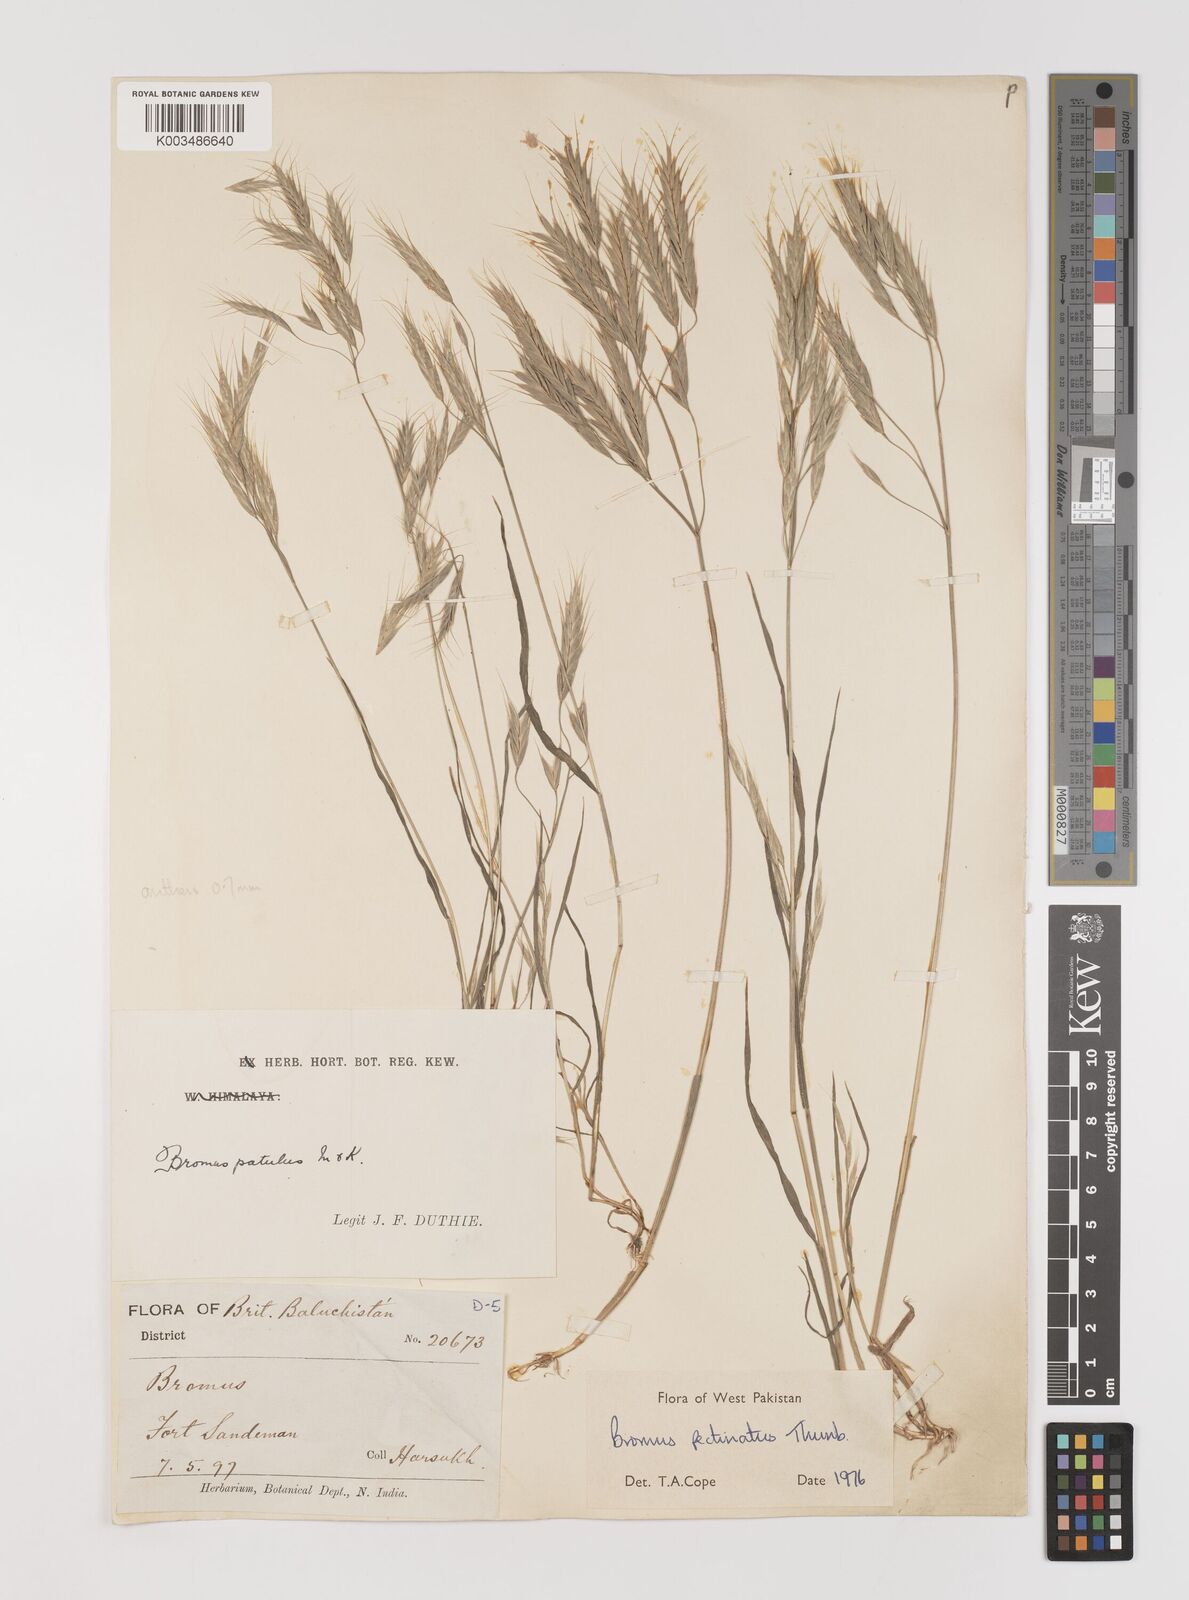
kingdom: Plantae
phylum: Tracheophyta
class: Liliopsida
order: Poales
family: Poaceae
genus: Bromus
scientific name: Bromus pectinatus
